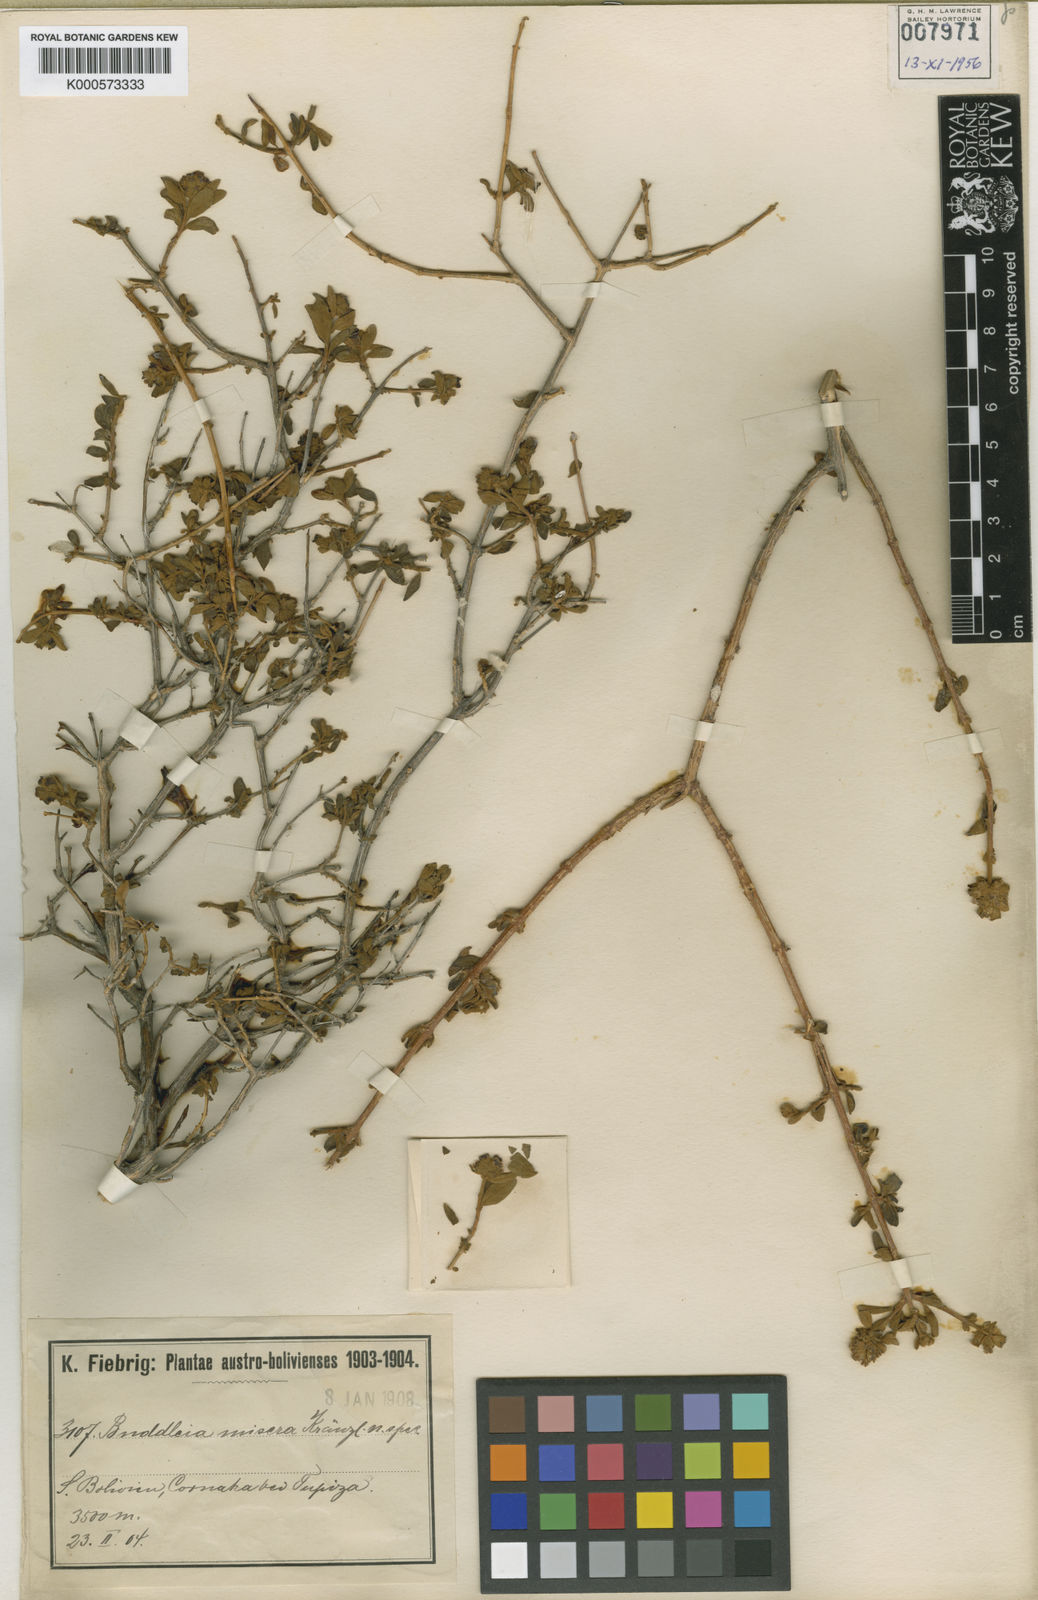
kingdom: Plantae
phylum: Tracheophyta
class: Magnoliopsida
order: Lamiales
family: Scrophulariaceae
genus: Buddleja
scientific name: Buddleja hieronymi
